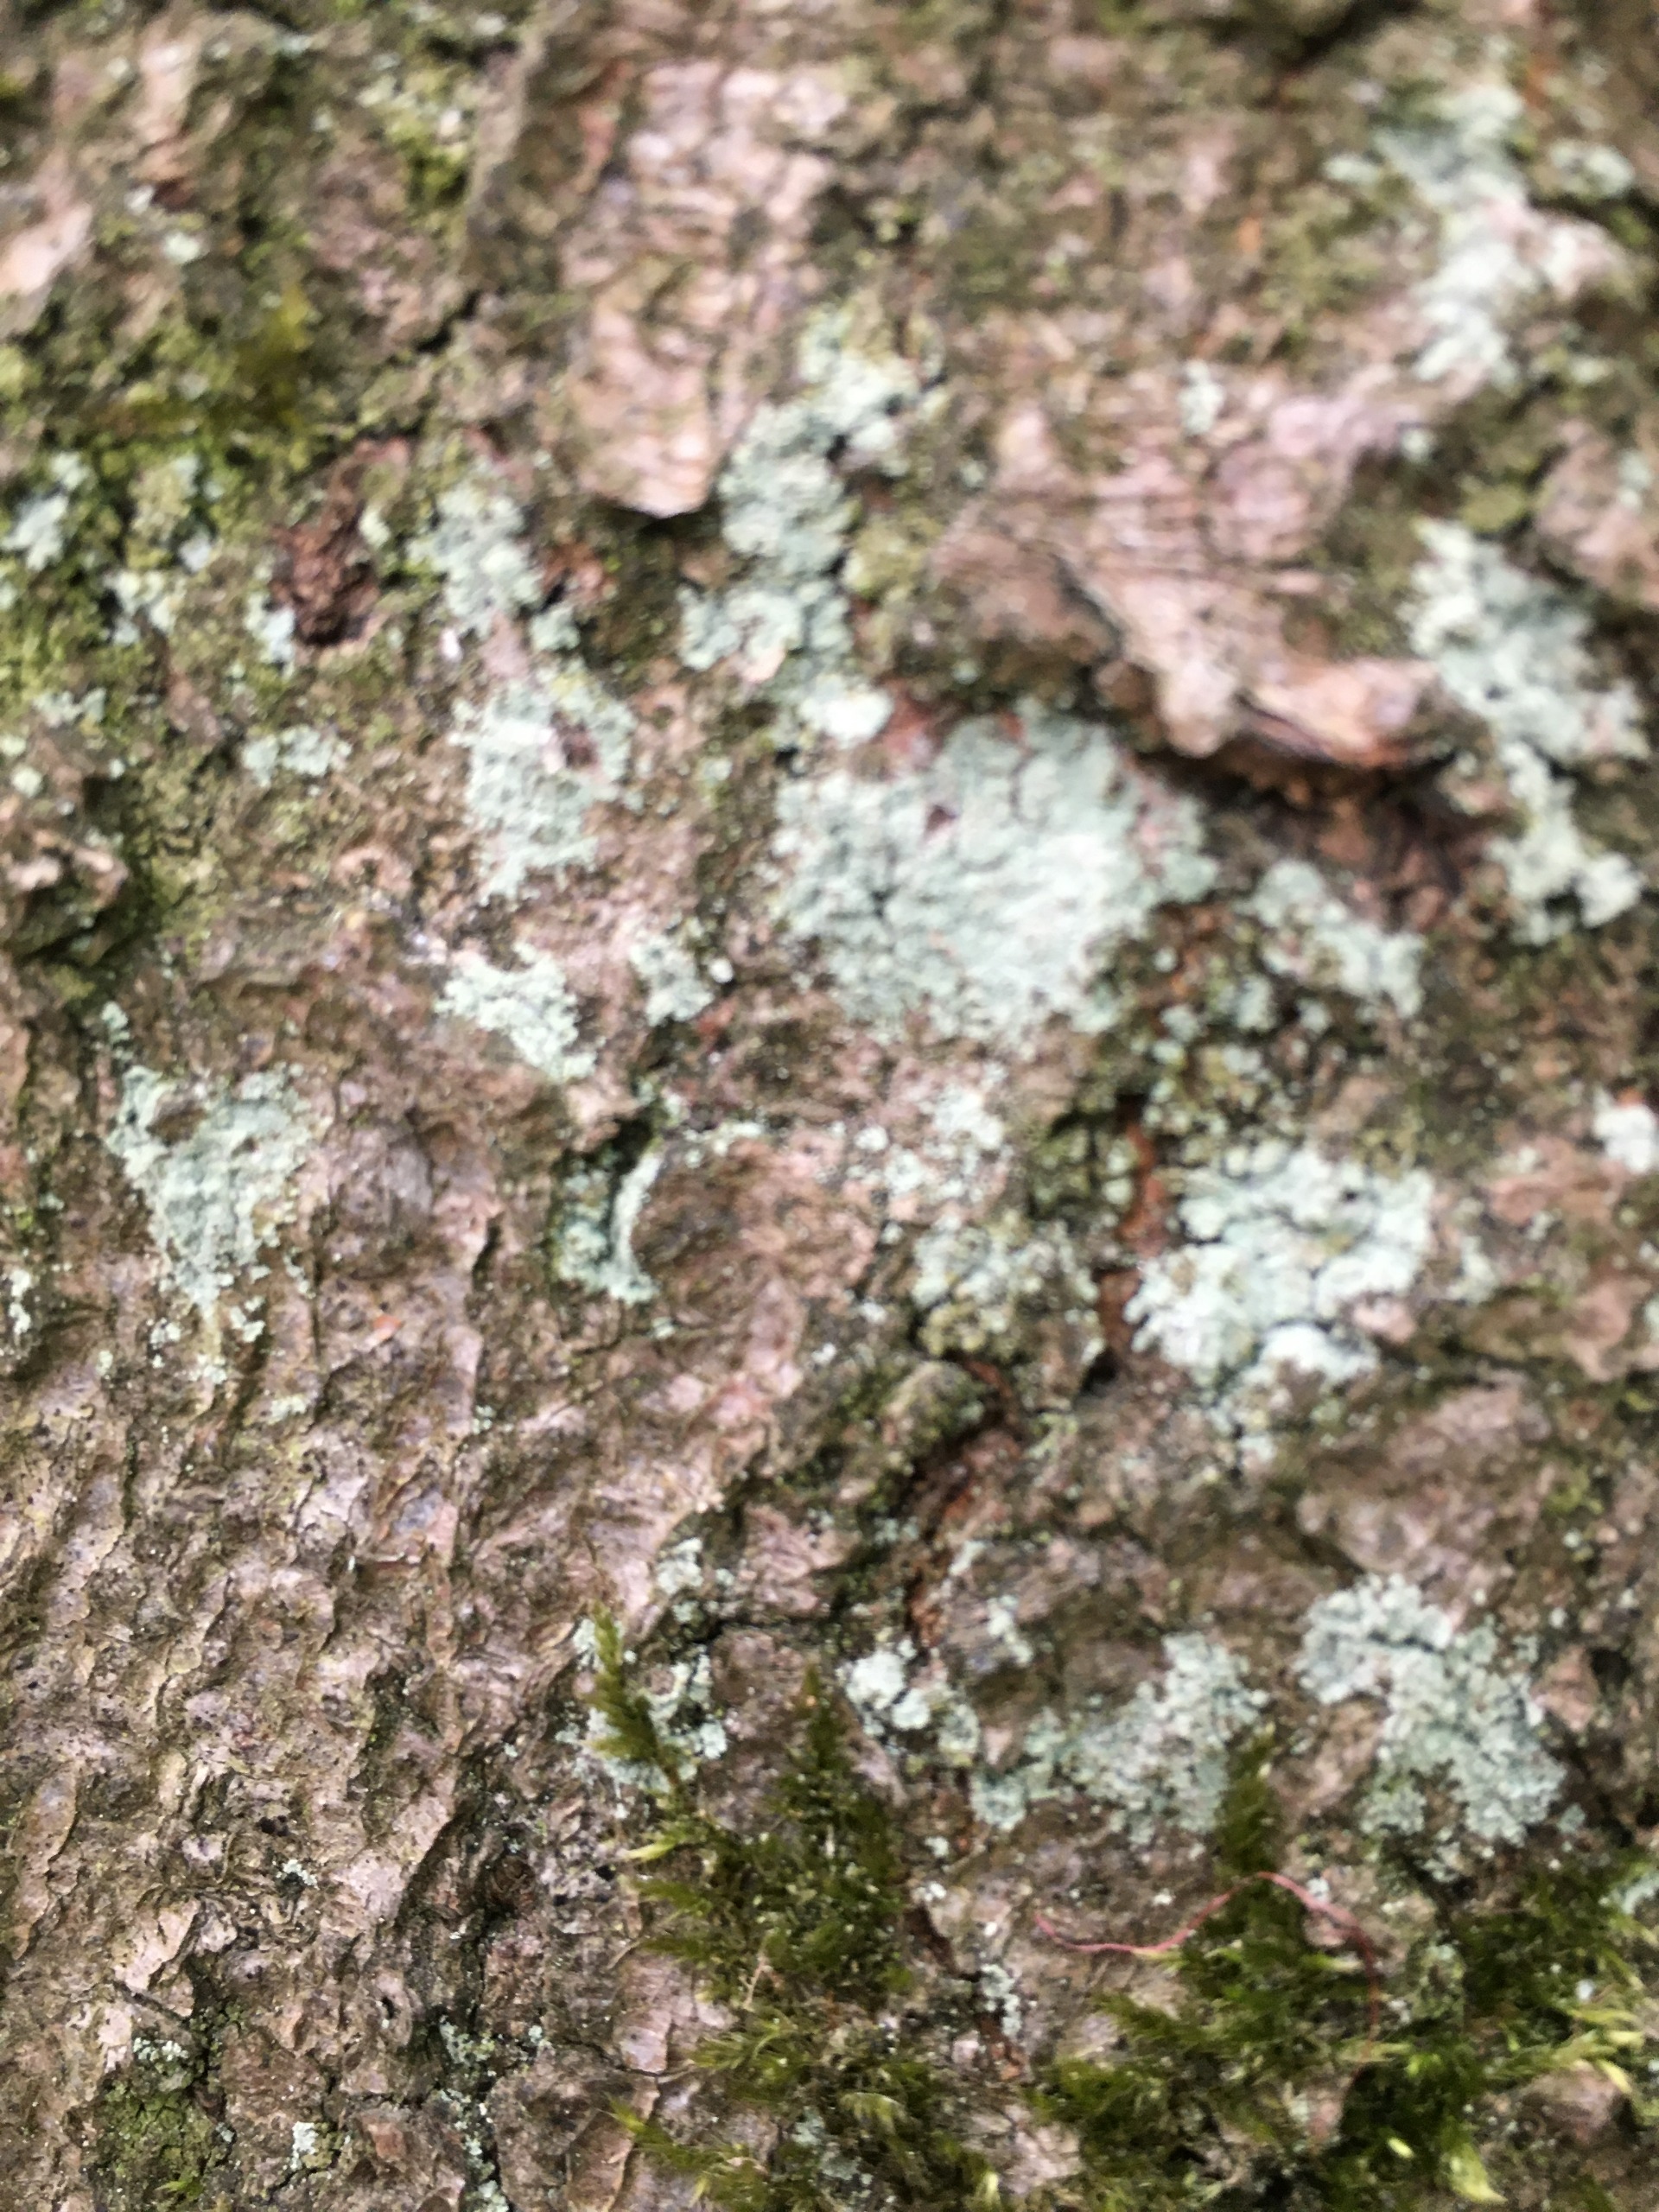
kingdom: Fungi
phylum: Ascomycota
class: Lecanoromycetes
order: Lecanorales
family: Stereocaulaceae
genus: Lepraria
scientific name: Lepraria
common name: Støvlav
